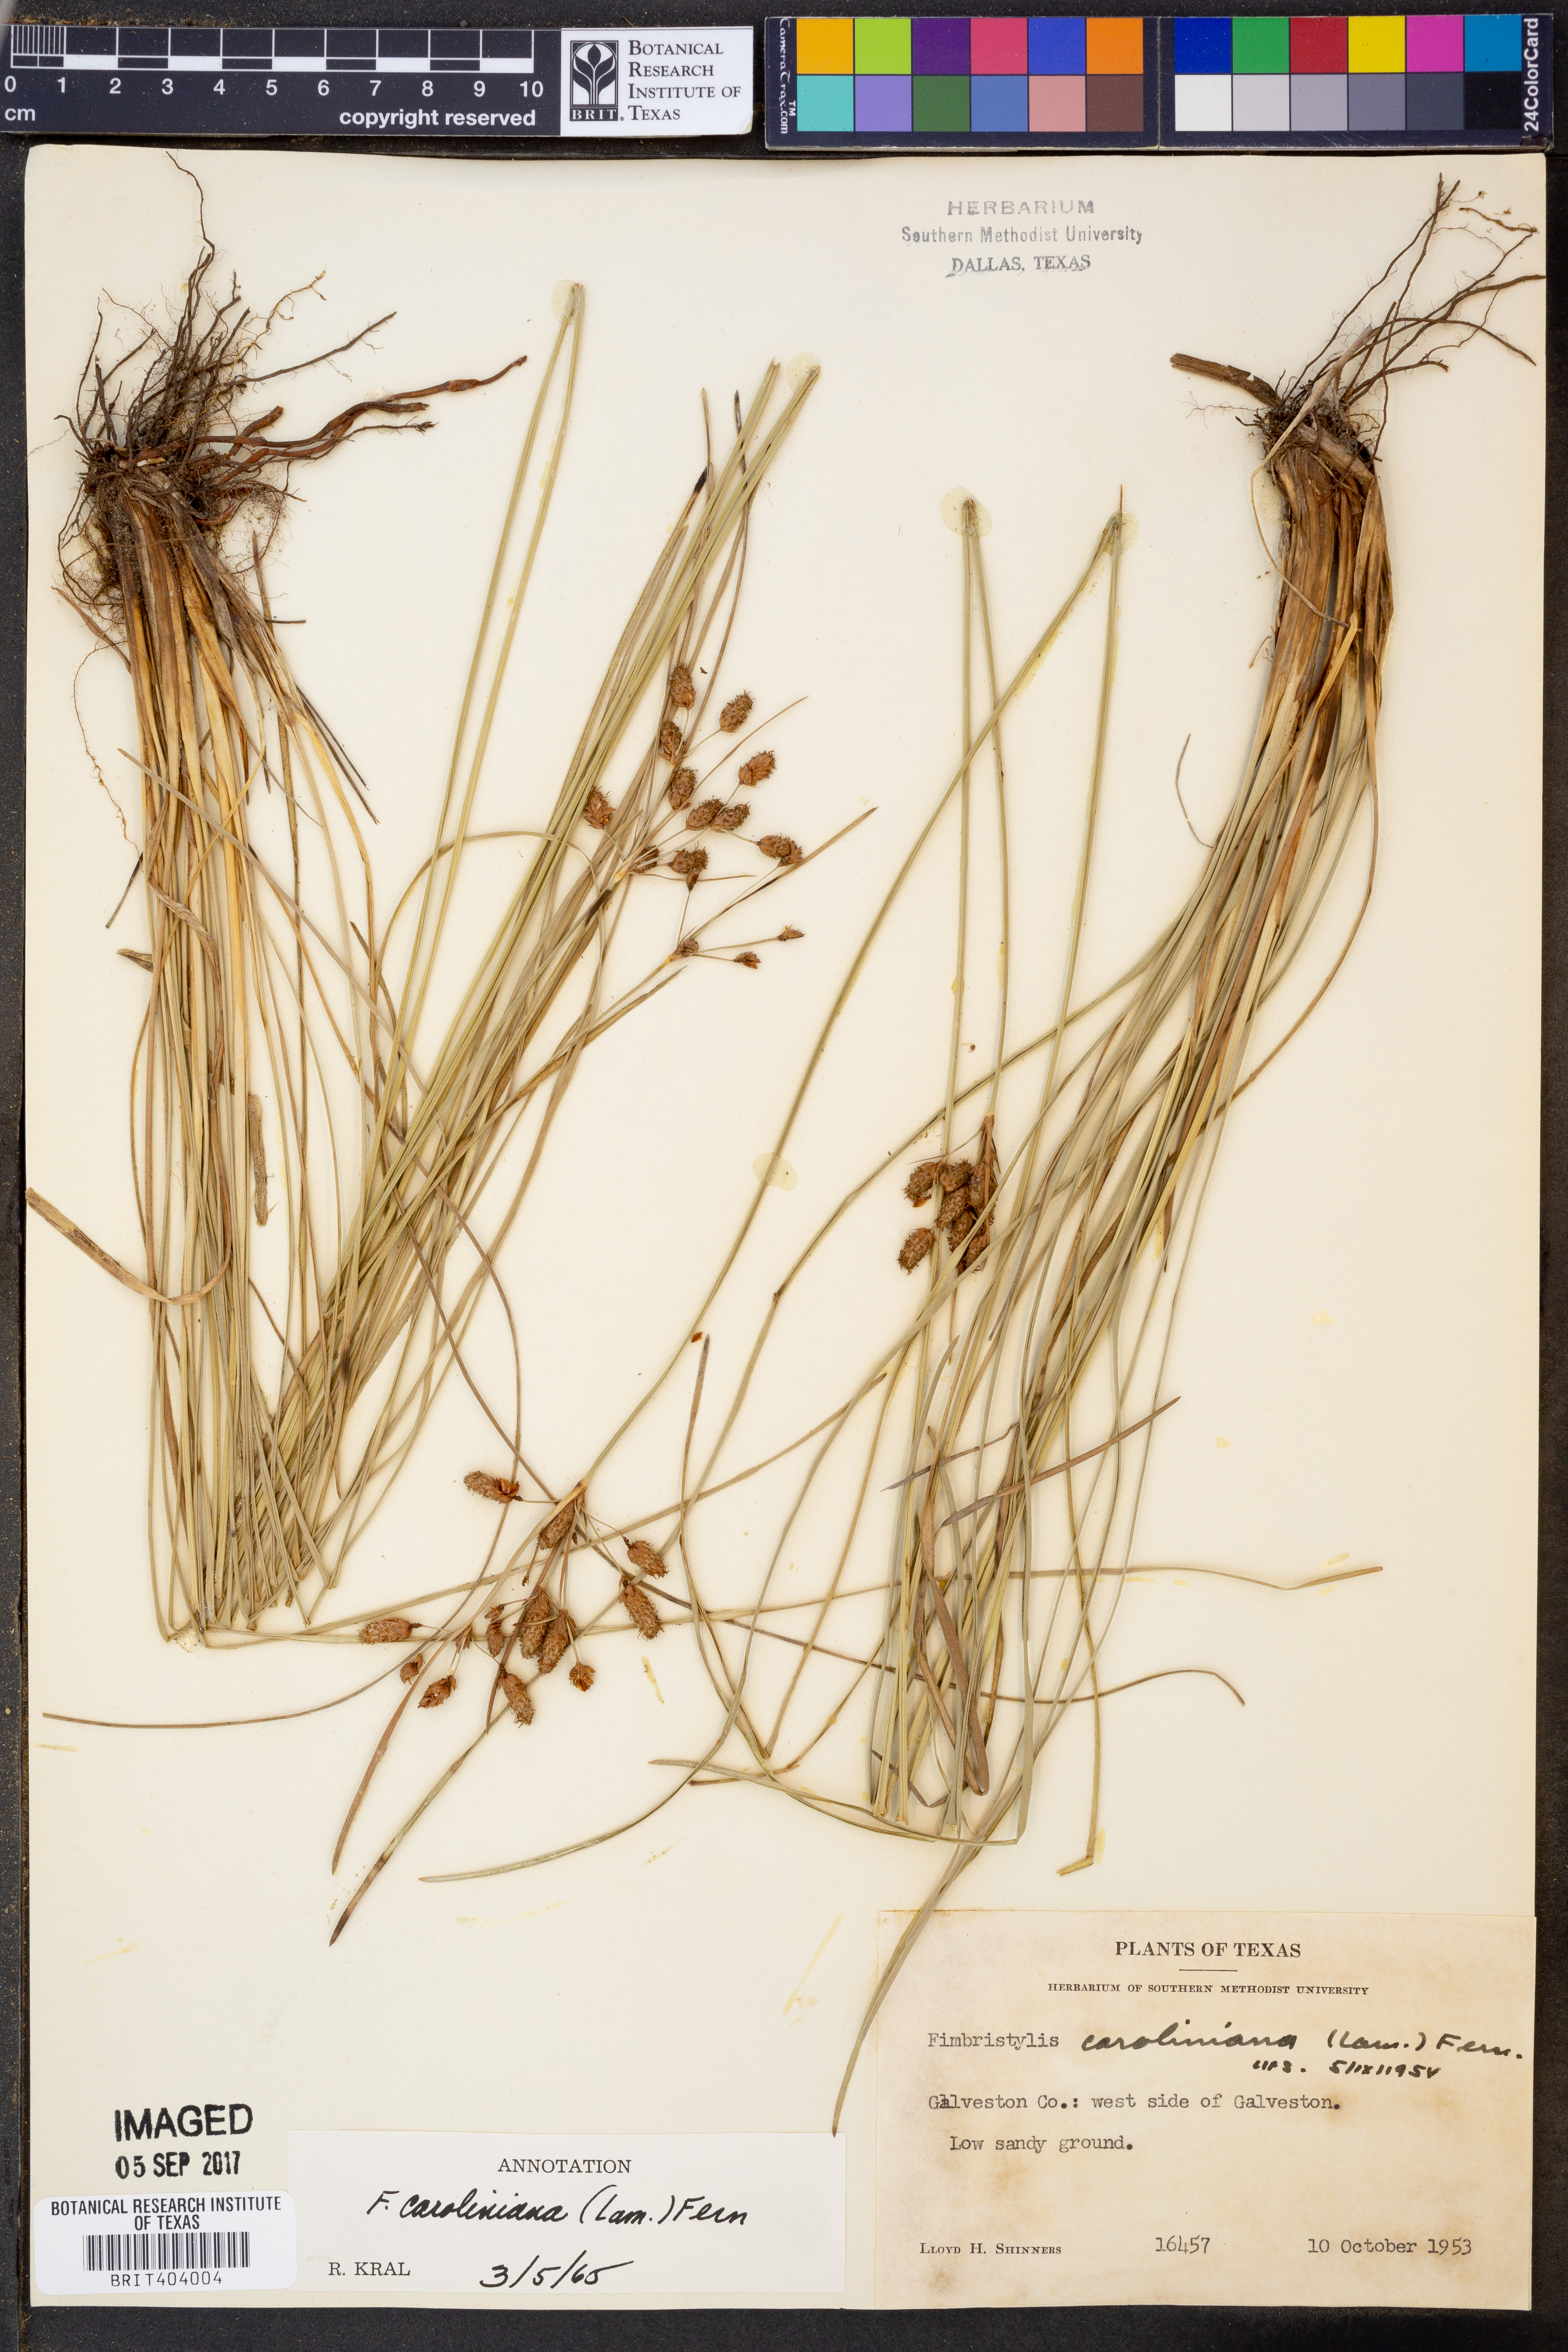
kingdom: Plantae
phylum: Tracheophyta
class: Liliopsida
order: Poales
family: Cyperaceae
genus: Fimbristylis
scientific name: Fimbristylis caroliniana
